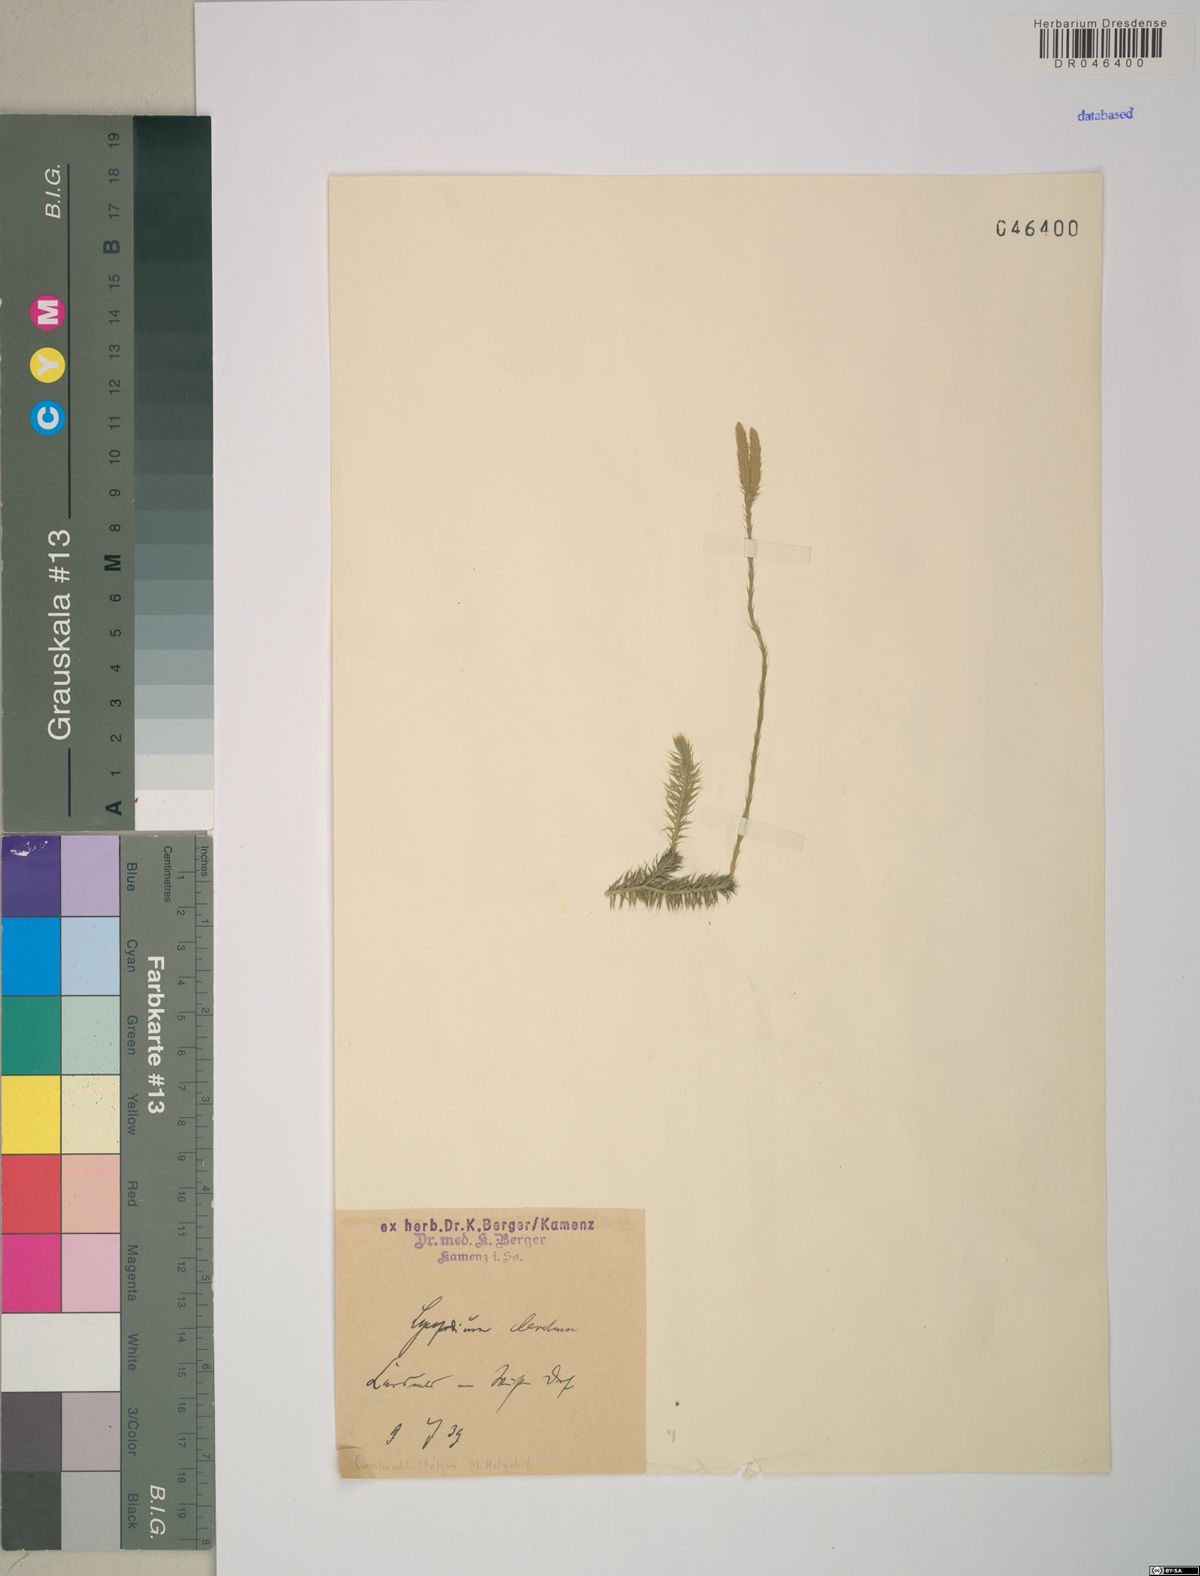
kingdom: Plantae
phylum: Tracheophyta
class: Lycopodiopsida
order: Lycopodiales
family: Lycopodiaceae
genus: Lycopodium
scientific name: Lycopodium clavatum
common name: Stag's-horn clubmoss
